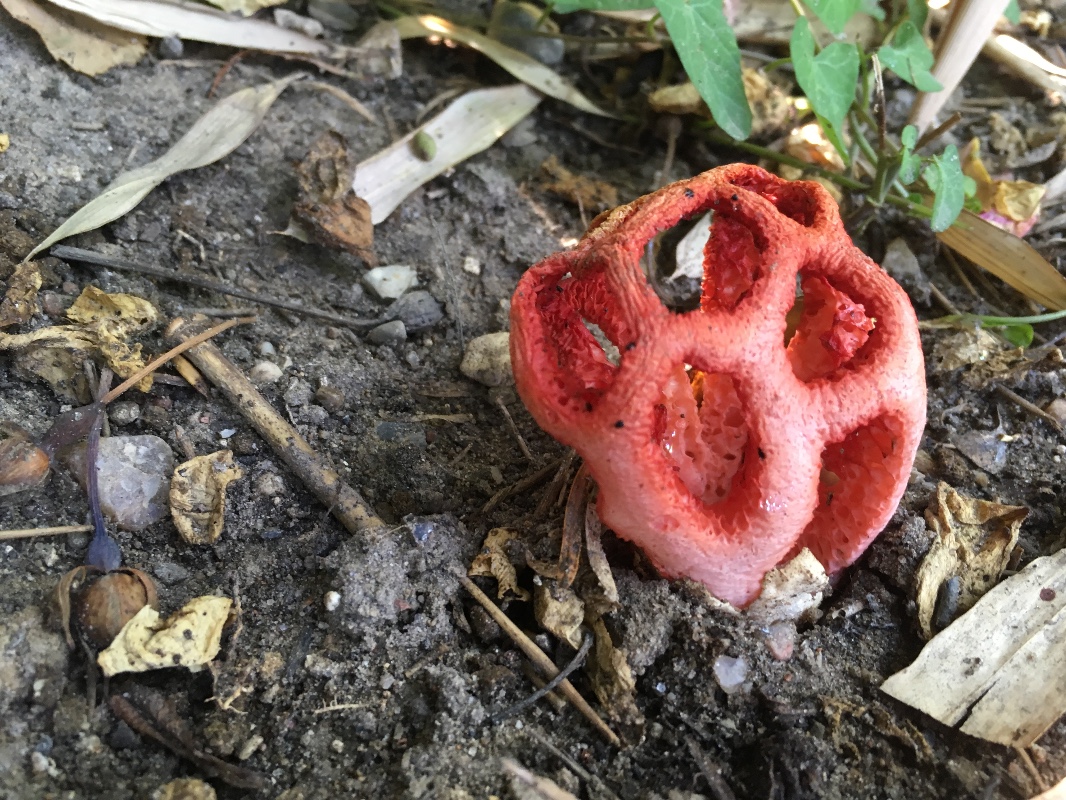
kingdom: Fungi
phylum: Basidiomycota
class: Agaricomycetes
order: Phallales
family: Phallaceae
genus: Clathrus
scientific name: Clathrus ruber
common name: rød gitterkugle
